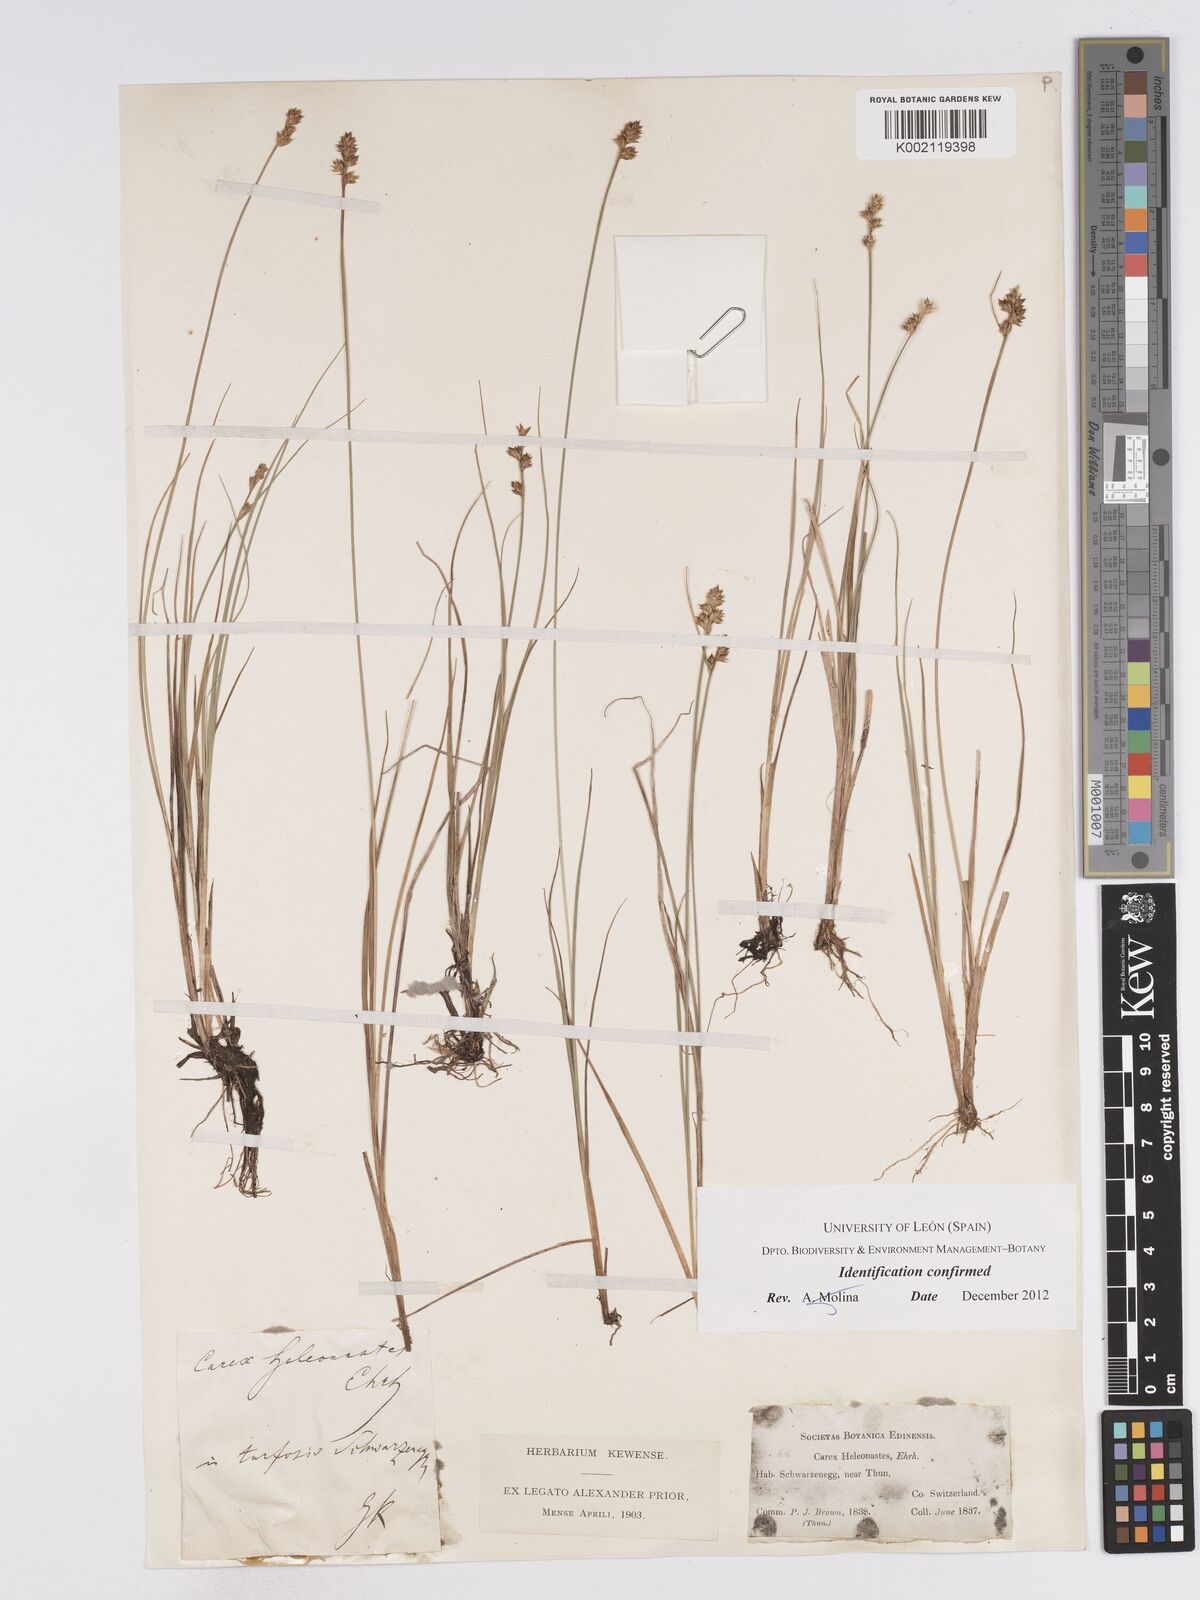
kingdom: Plantae
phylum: Tracheophyta
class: Liliopsida
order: Poales
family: Cyperaceae
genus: Carex
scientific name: Carex heleonastes
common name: Hudson bay sedge
